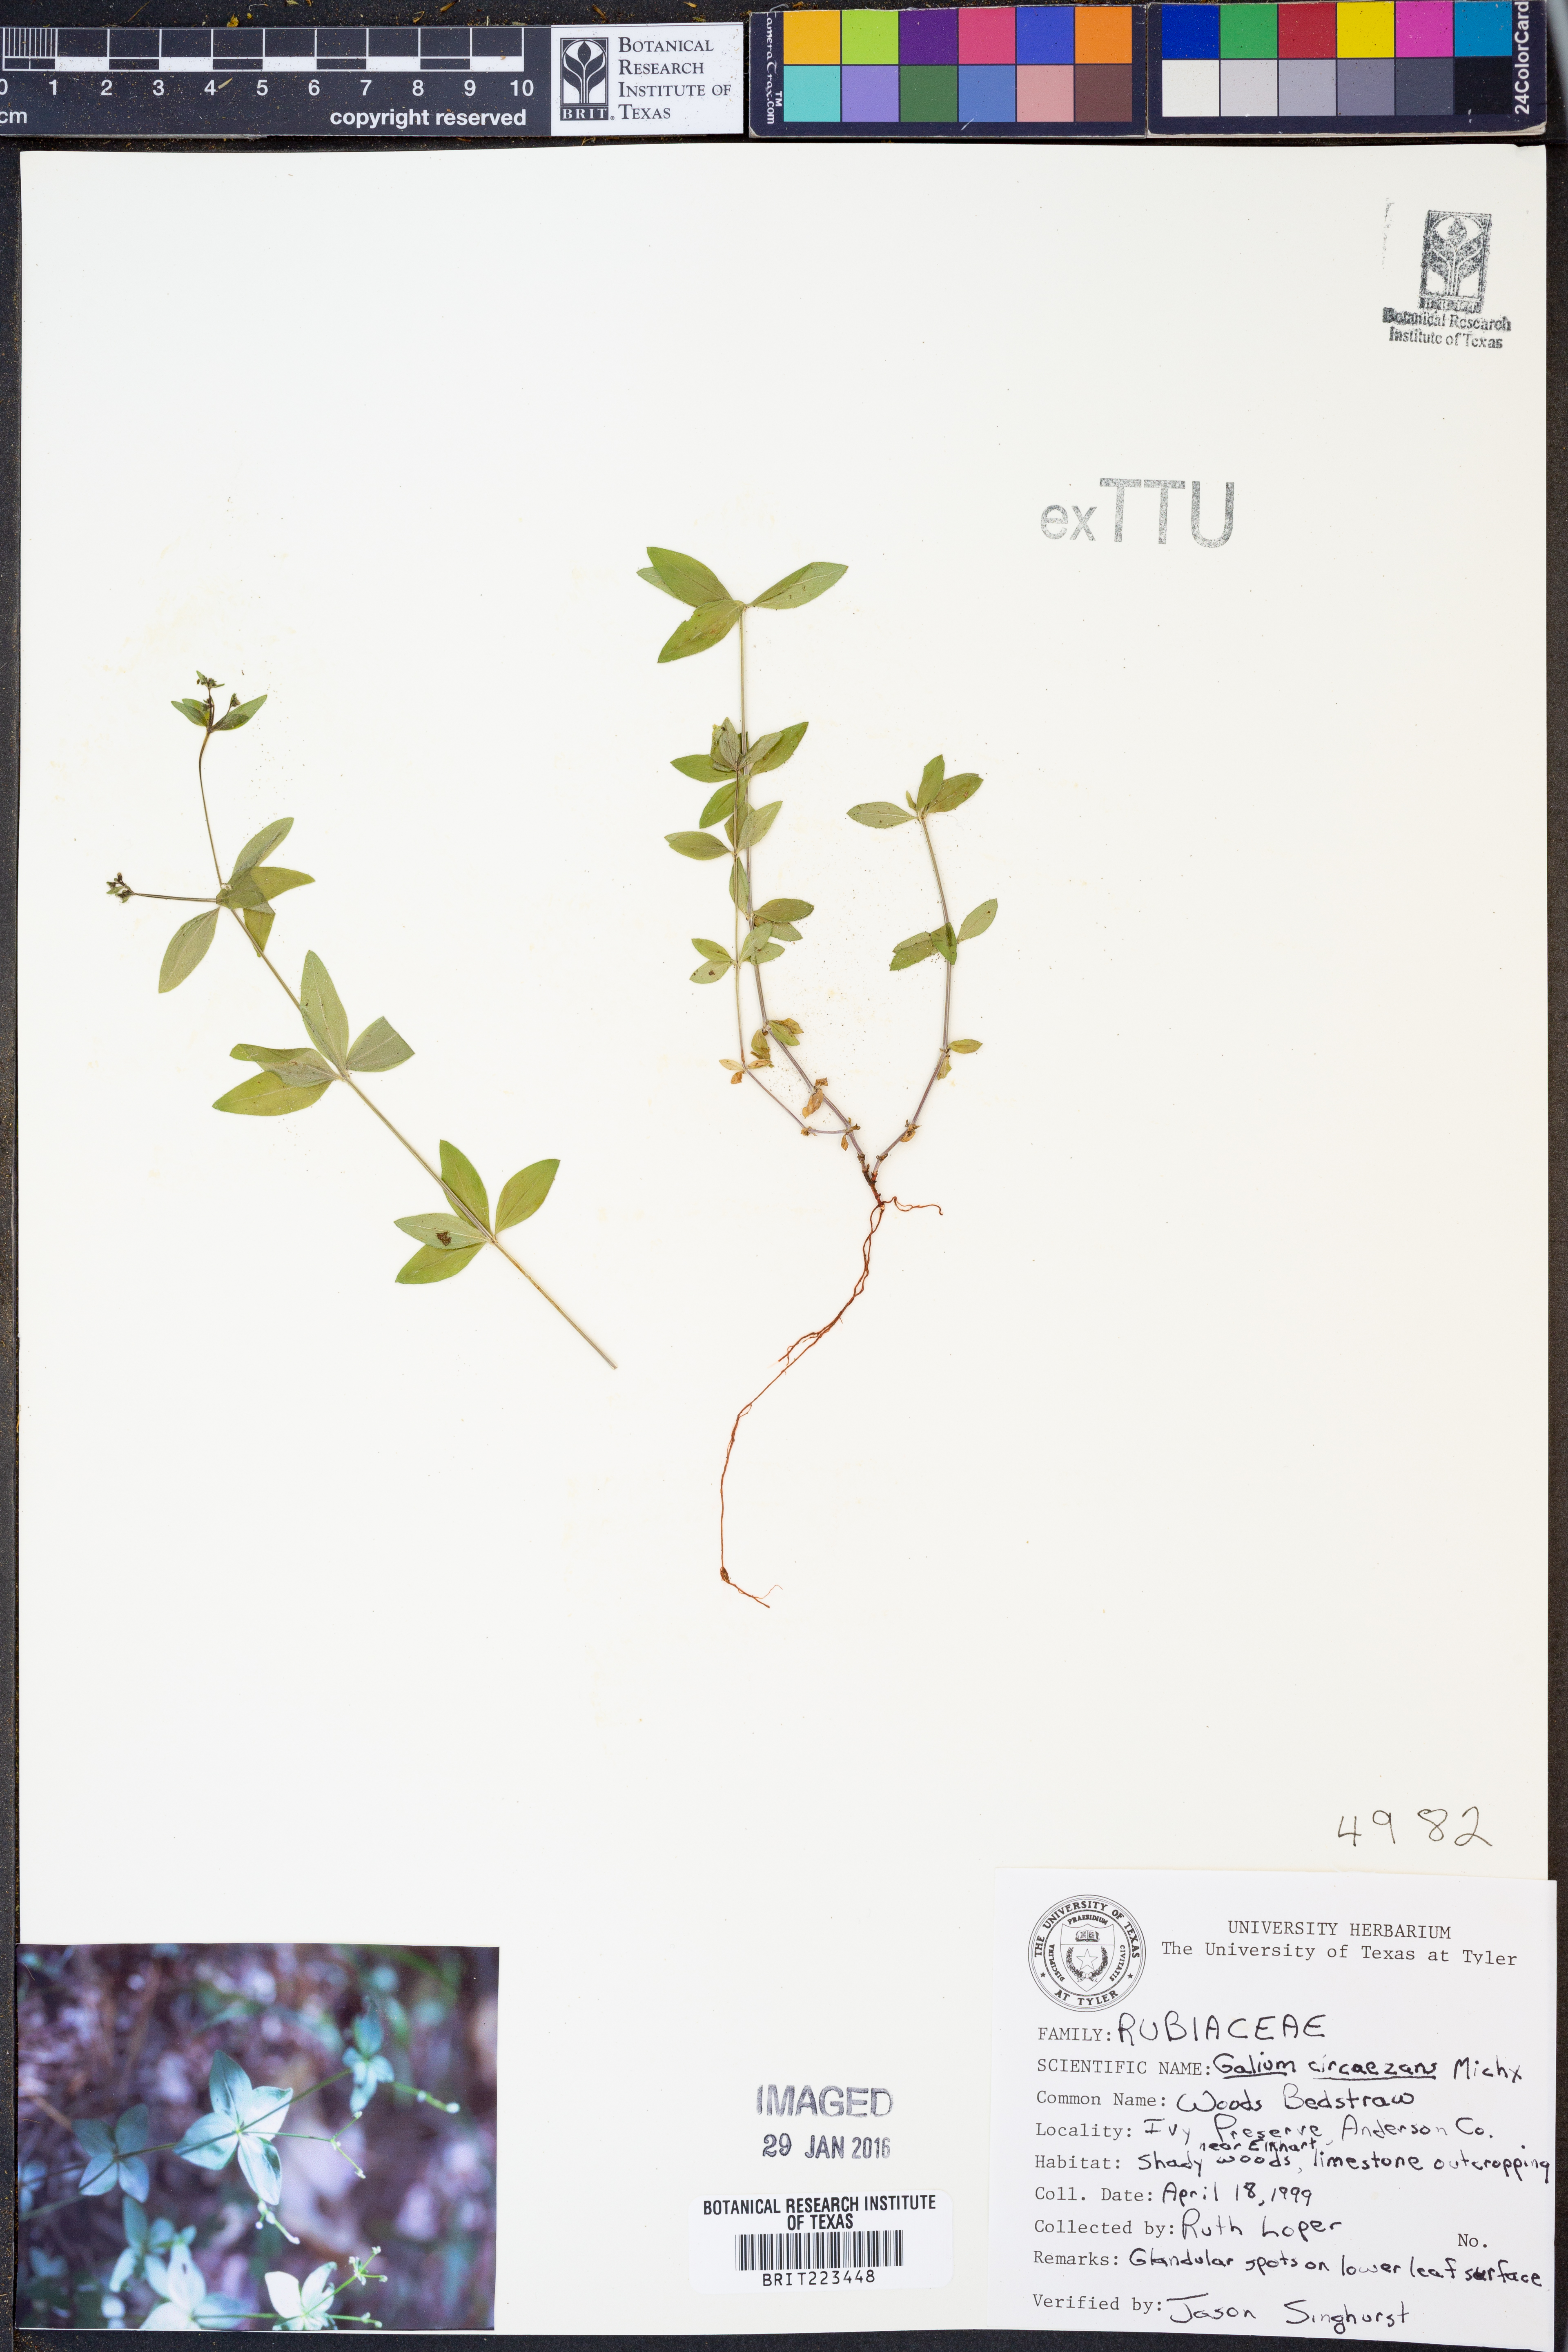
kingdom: Plantae
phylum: Tracheophyta
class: Magnoliopsida
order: Gentianales
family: Rubiaceae
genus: Galium
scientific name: Galium circaezans
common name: Forest bedstraw
